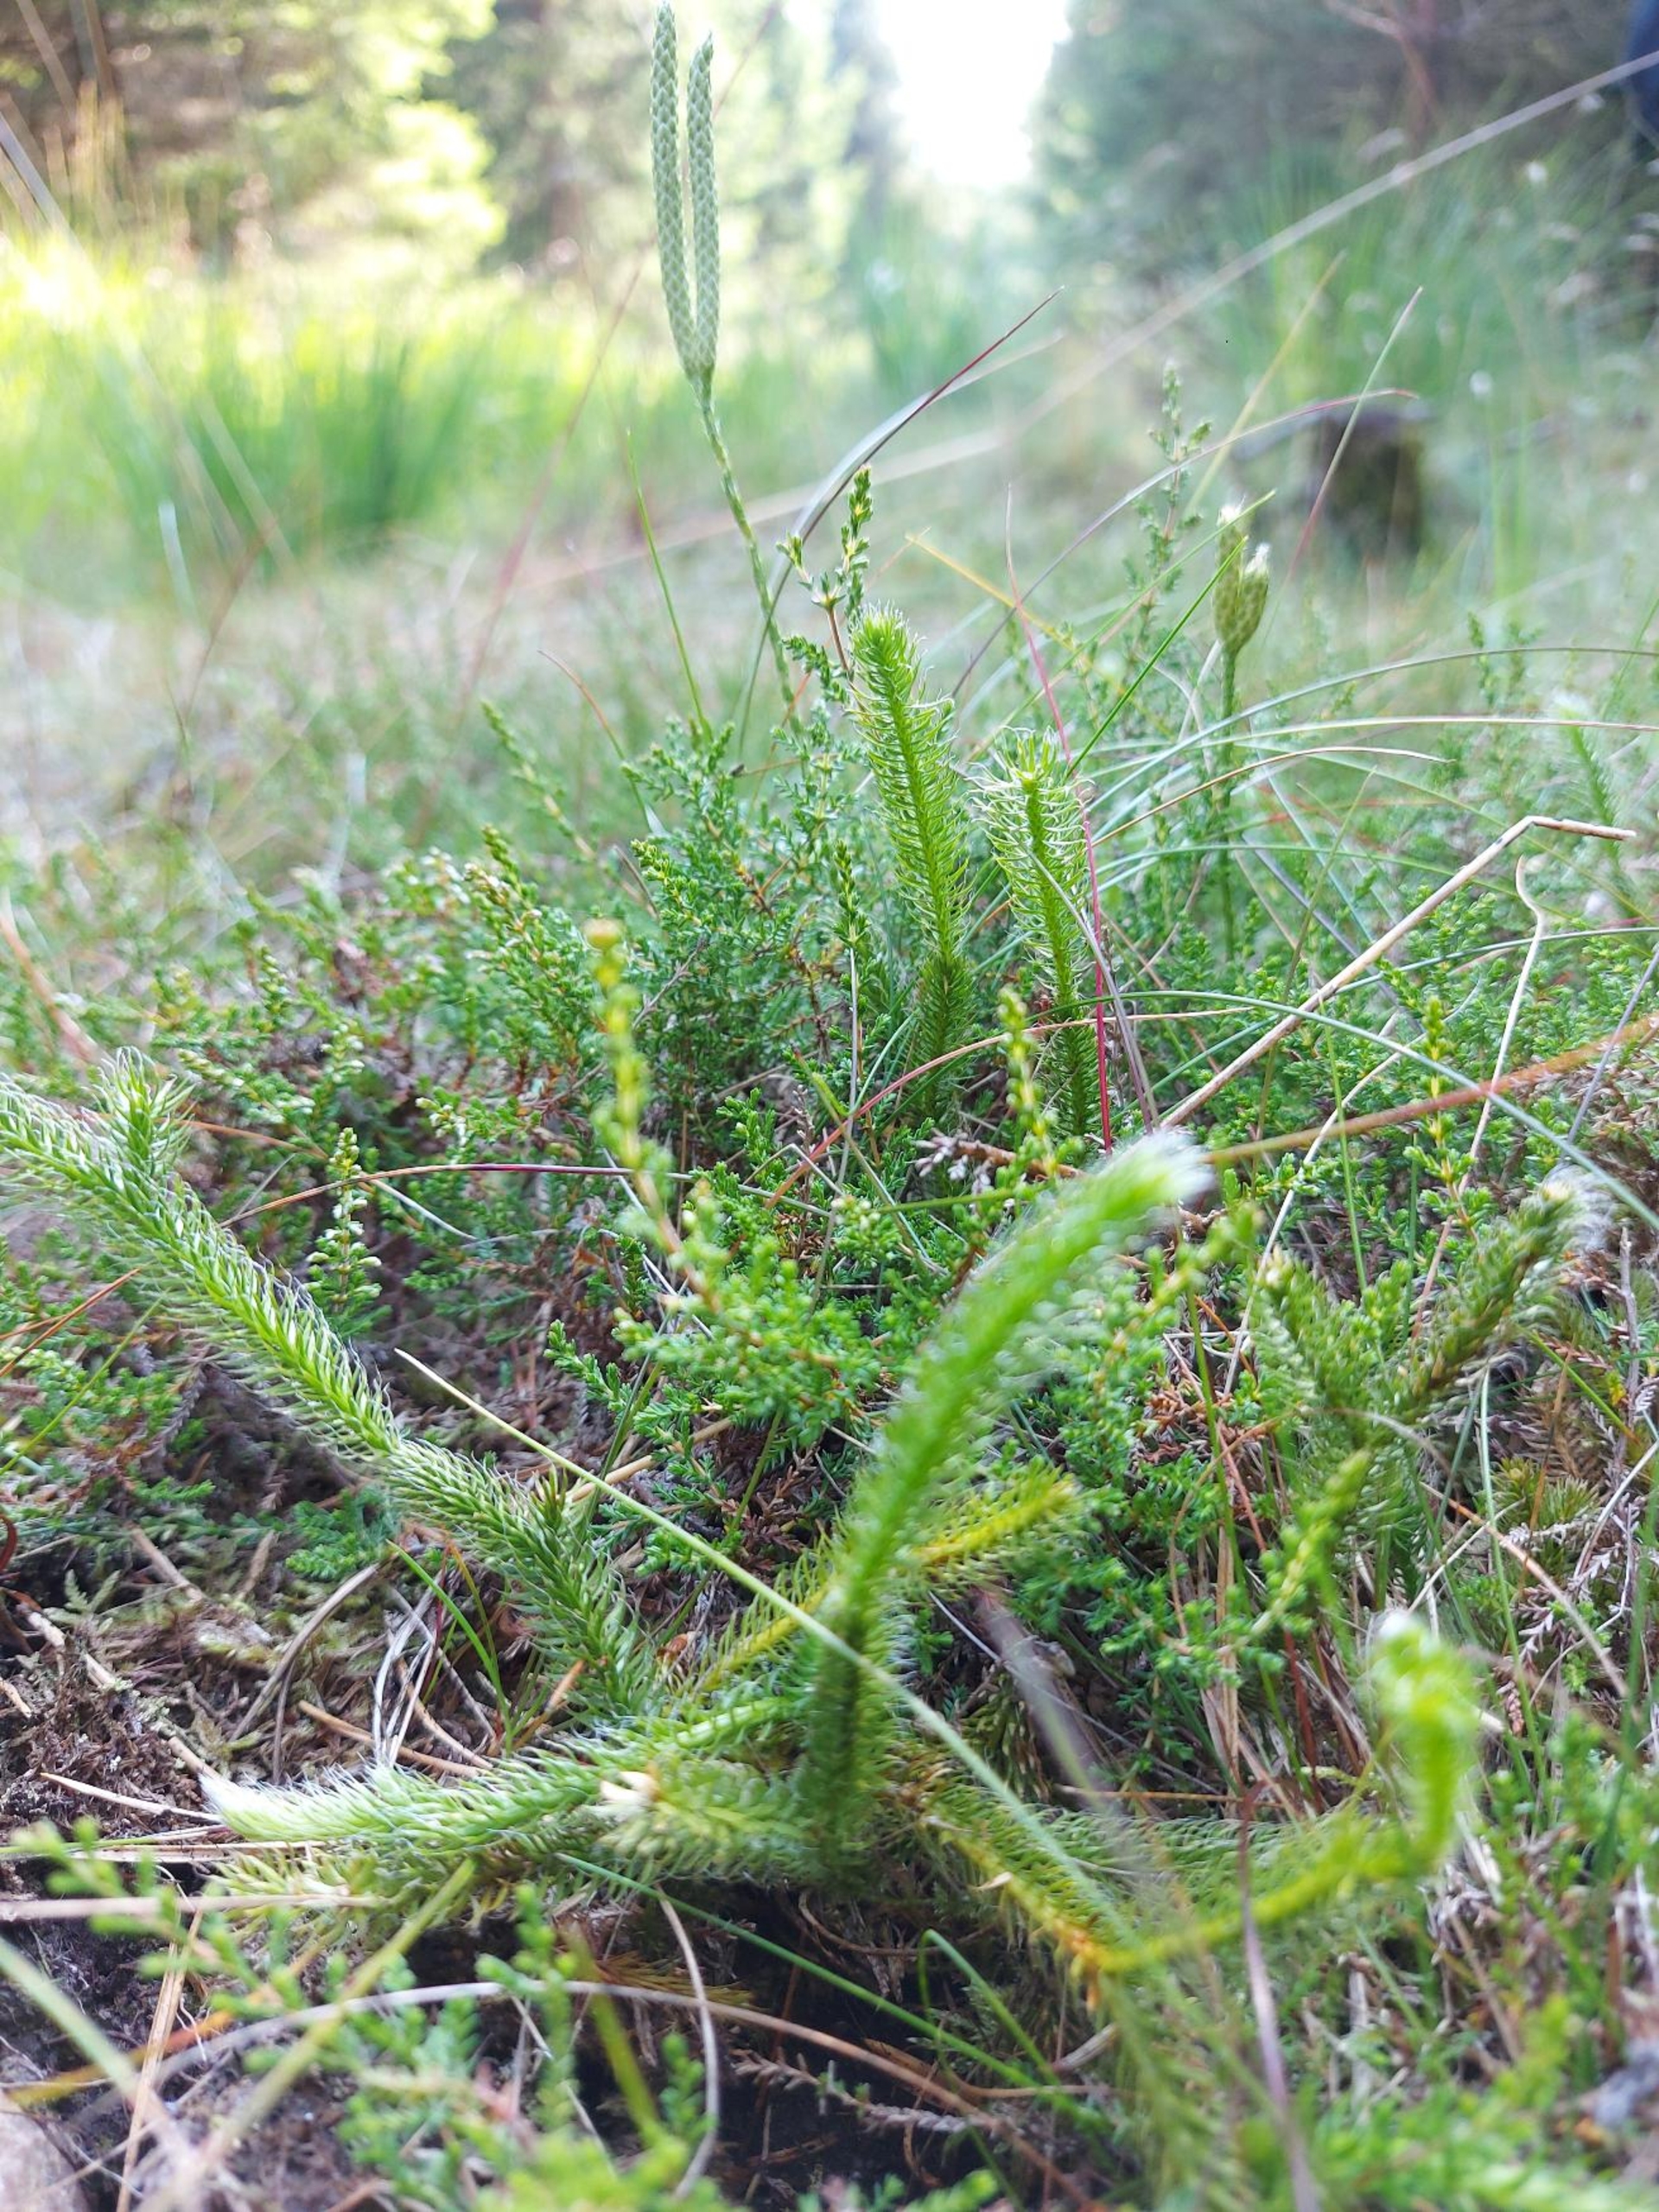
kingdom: Plantae
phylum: Tracheophyta
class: Lycopodiopsida
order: Lycopodiales
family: Lycopodiaceae
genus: Lycopodium
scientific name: Lycopodium clavatum
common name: Almindelig ulvefod
